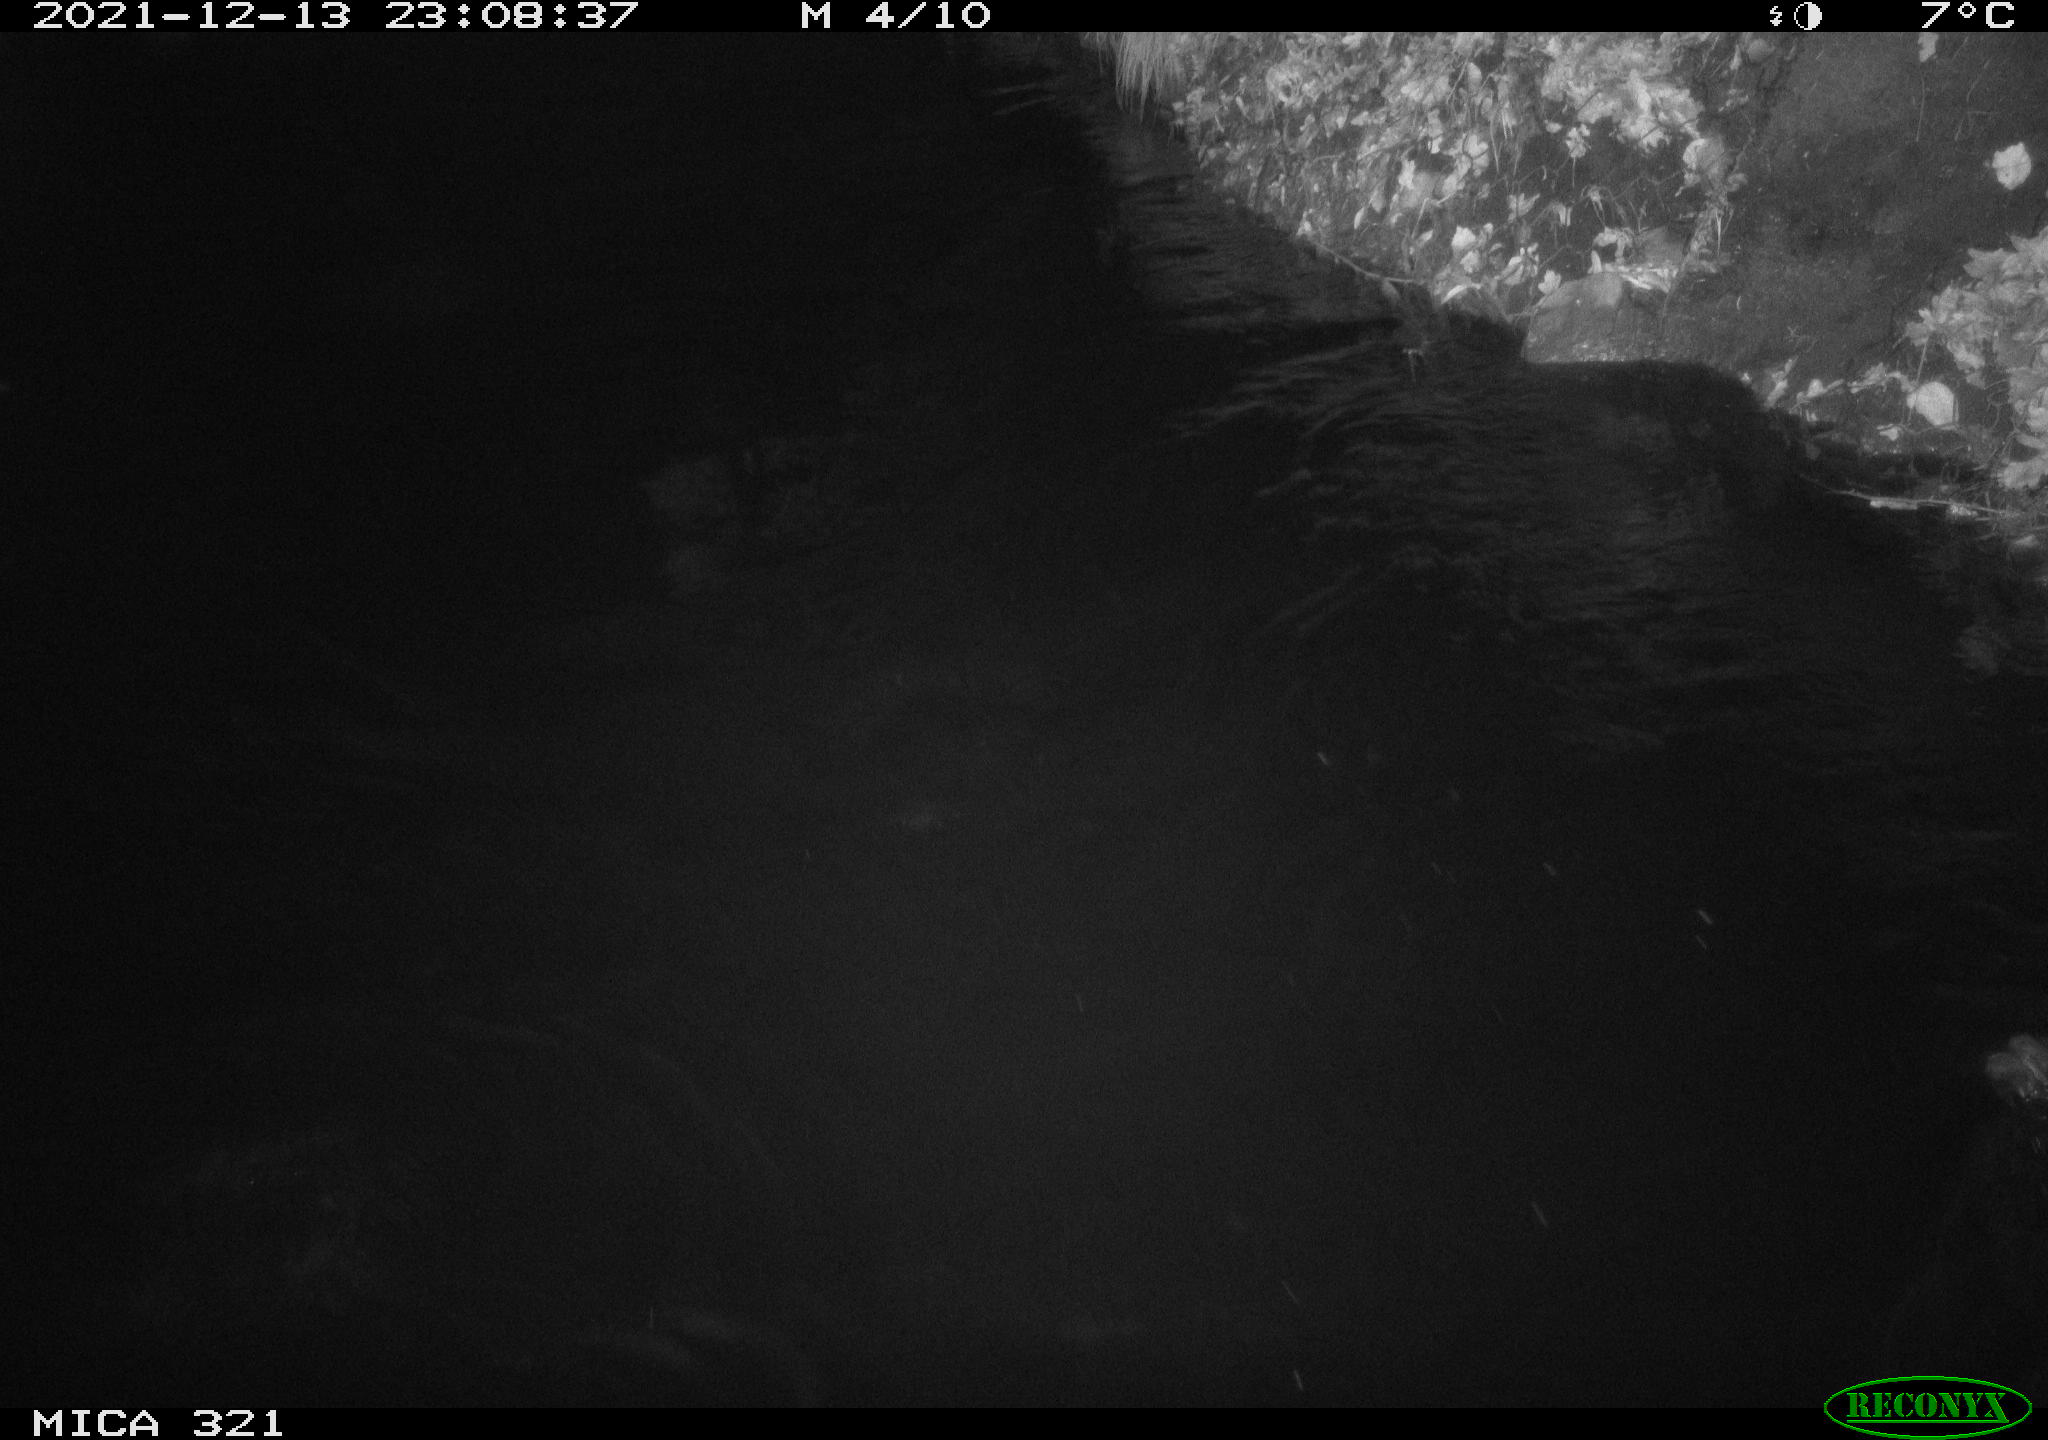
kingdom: Animalia
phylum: Chordata
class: Aves
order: Anseriformes
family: Anatidae
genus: Anas
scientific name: Anas platyrhynchos
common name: Mallard
